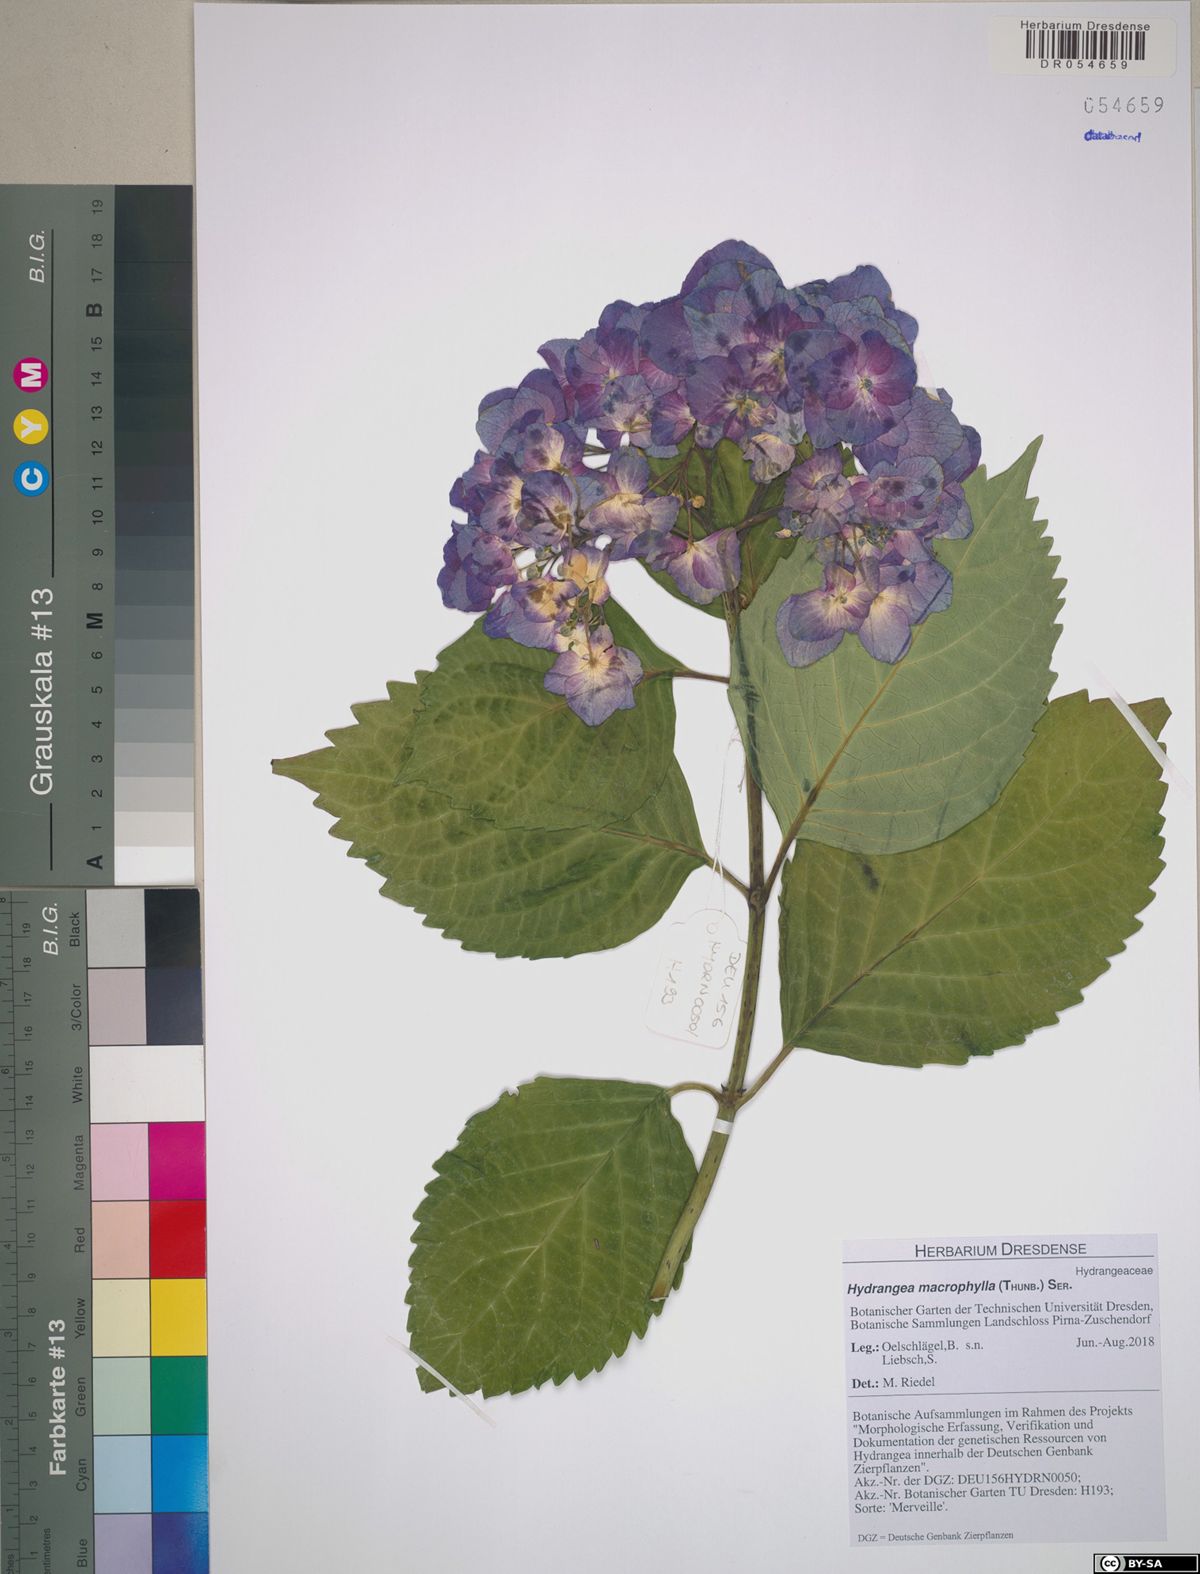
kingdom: Plantae
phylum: Tracheophyta
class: Magnoliopsida
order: Cornales
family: Hydrangeaceae
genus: Hydrangea
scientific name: Hydrangea macrophylla
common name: Hydrangea
